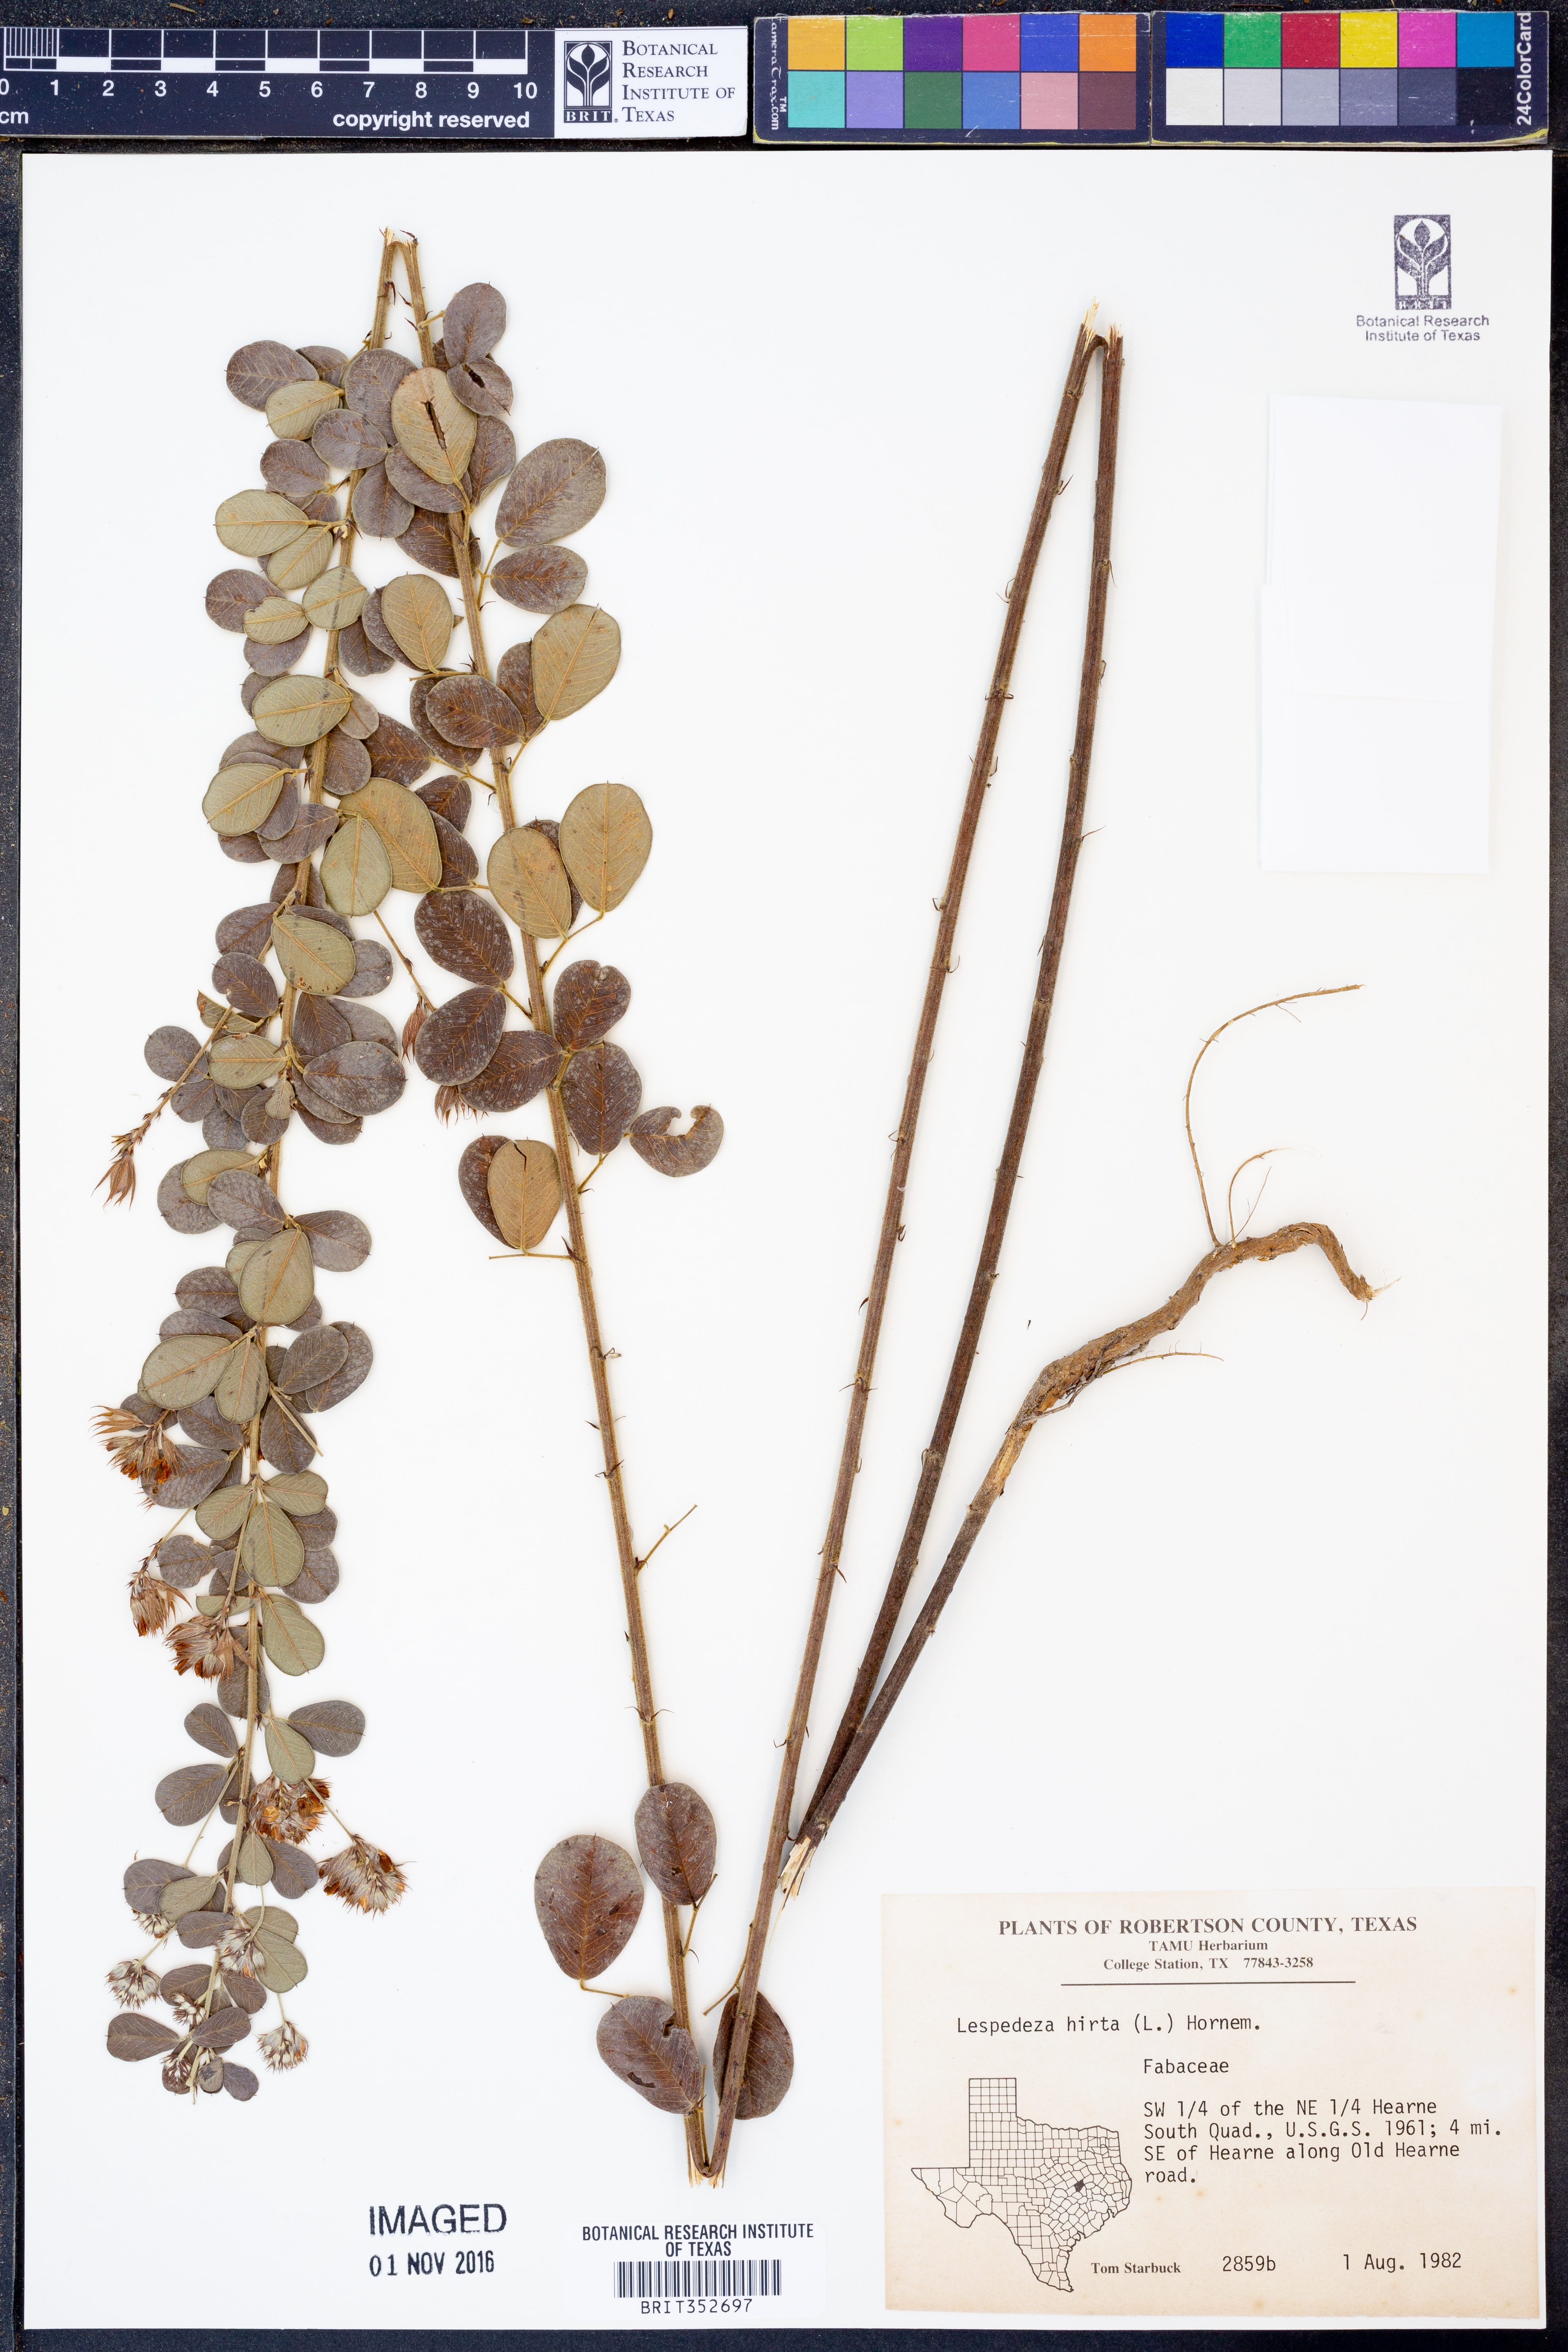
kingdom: Plantae
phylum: Tracheophyta
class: Magnoliopsida
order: Fabales
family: Fabaceae
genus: Lespedeza
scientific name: Lespedeza hirta
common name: Hairy lespedeza
